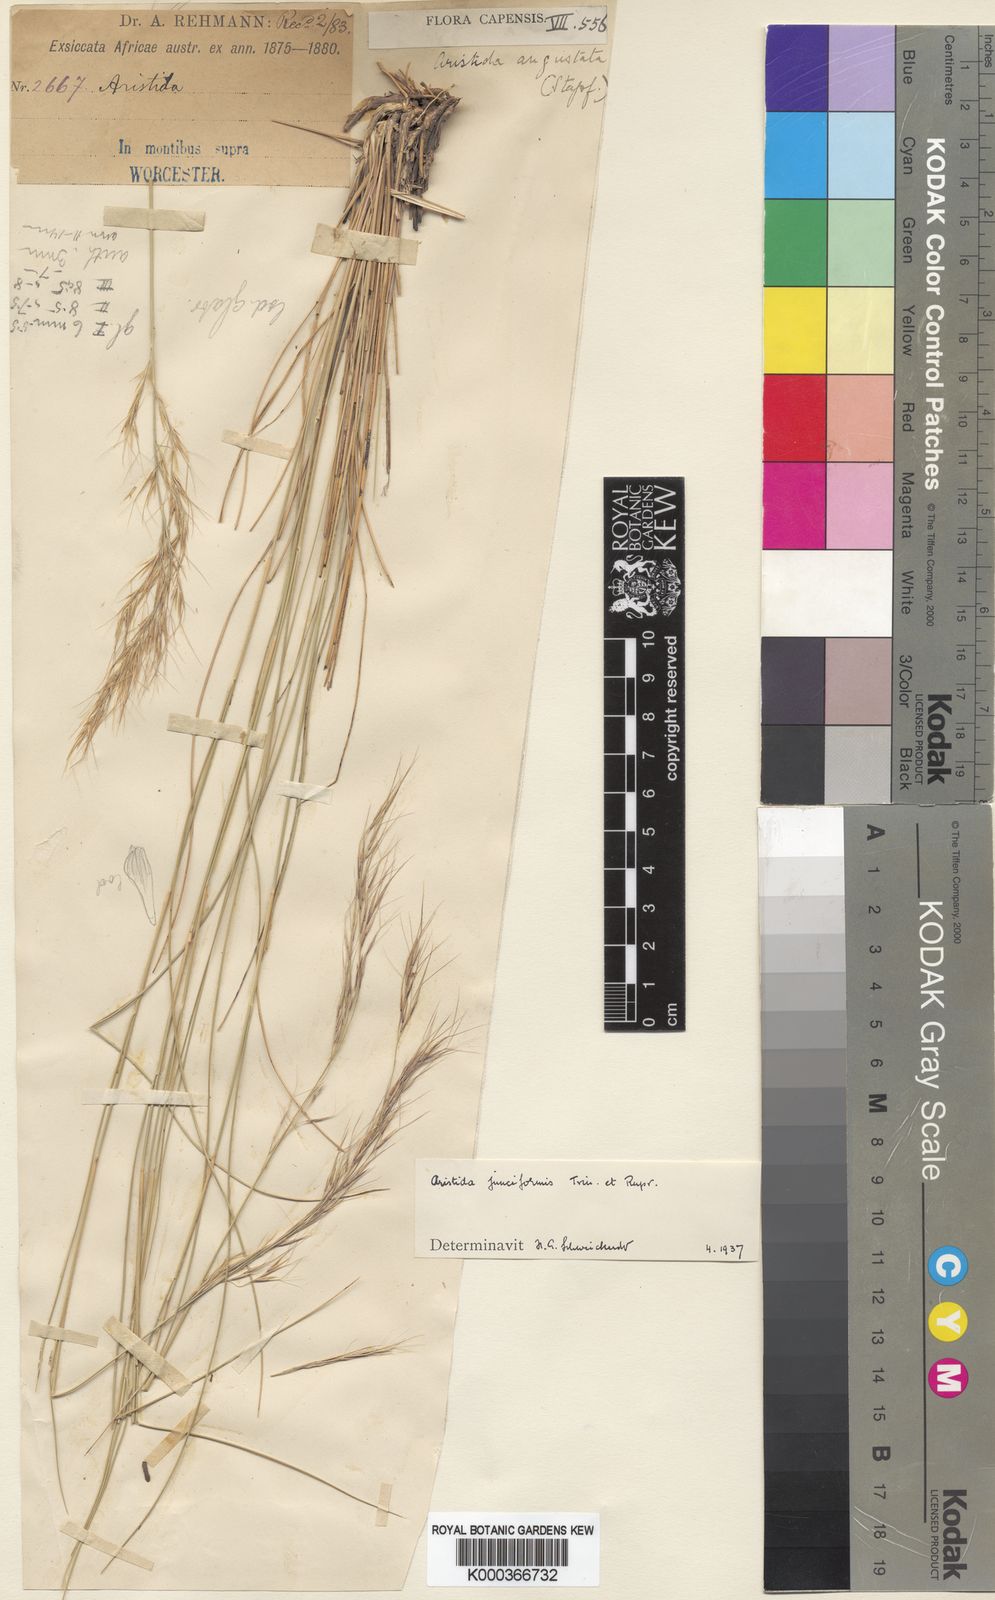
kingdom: Plantae
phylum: Tracheophyta
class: Liliopsida
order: Poales
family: Poaceae
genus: Aristida
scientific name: Aristida junciformis
